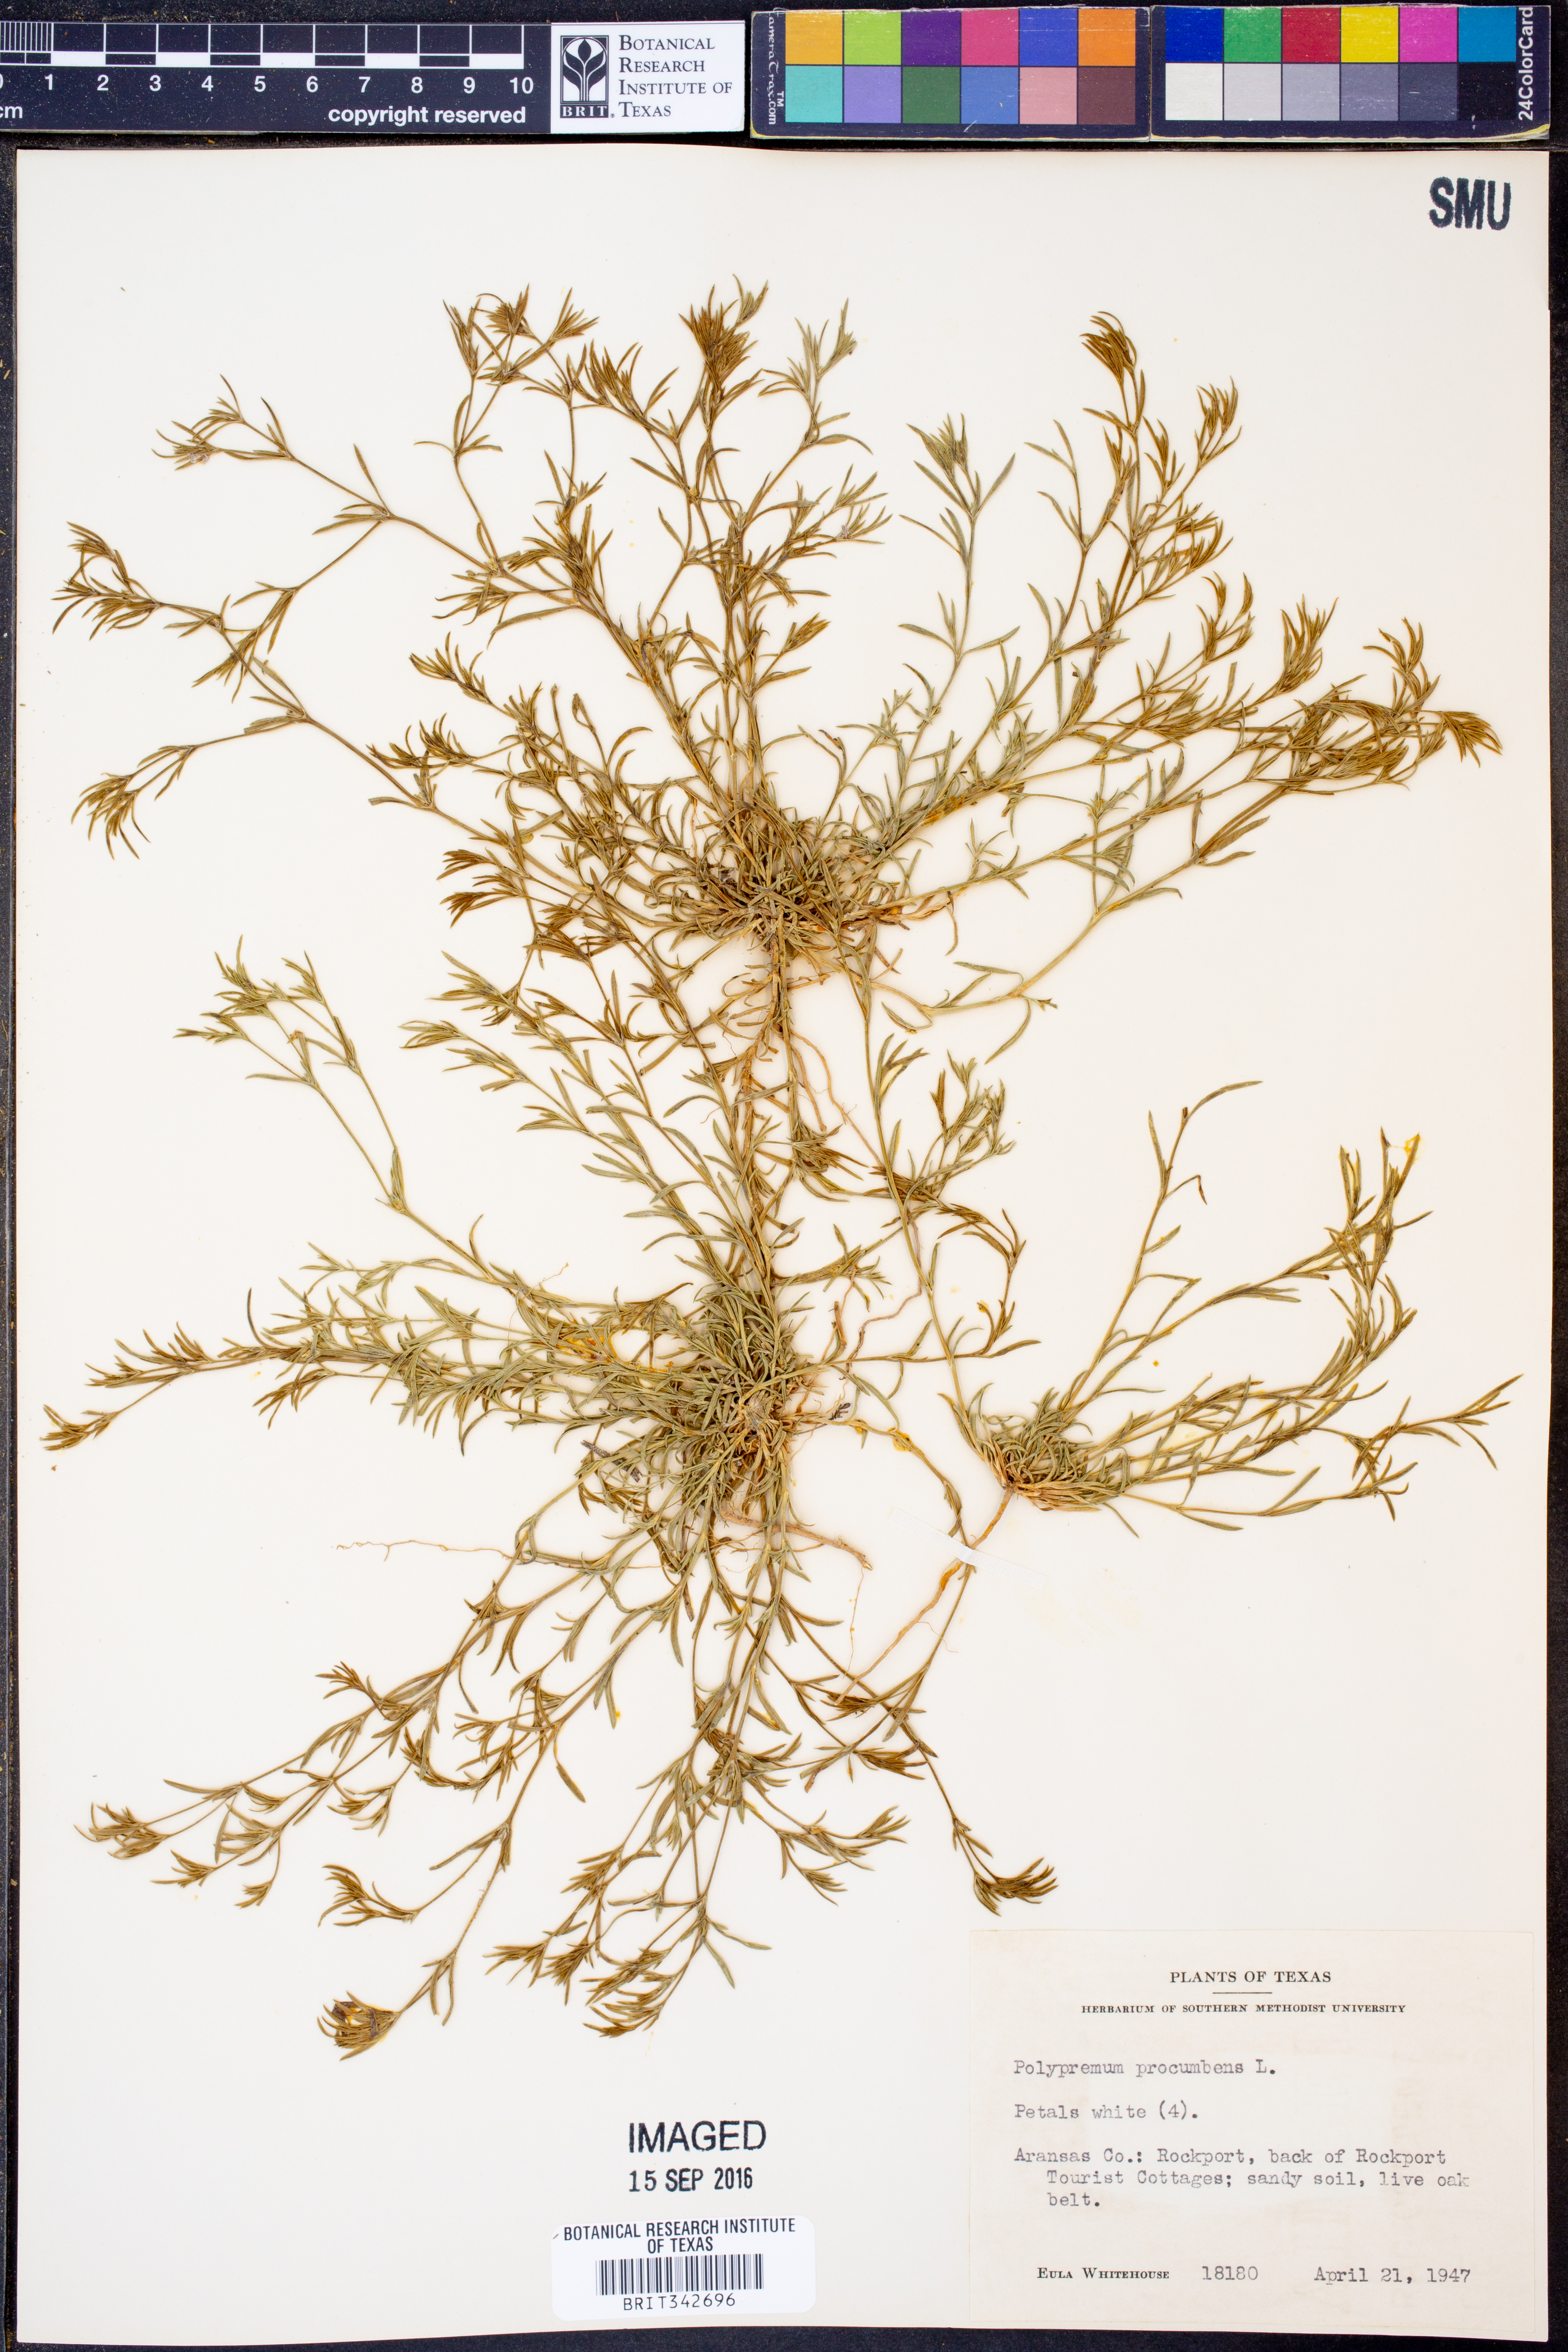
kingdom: Plantae
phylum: Tracheophyta
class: Magnoliopsida
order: Lamiales
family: Tetrachondraceae
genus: Polypremum
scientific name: Polypremum procumbens
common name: Juniper-leaf
